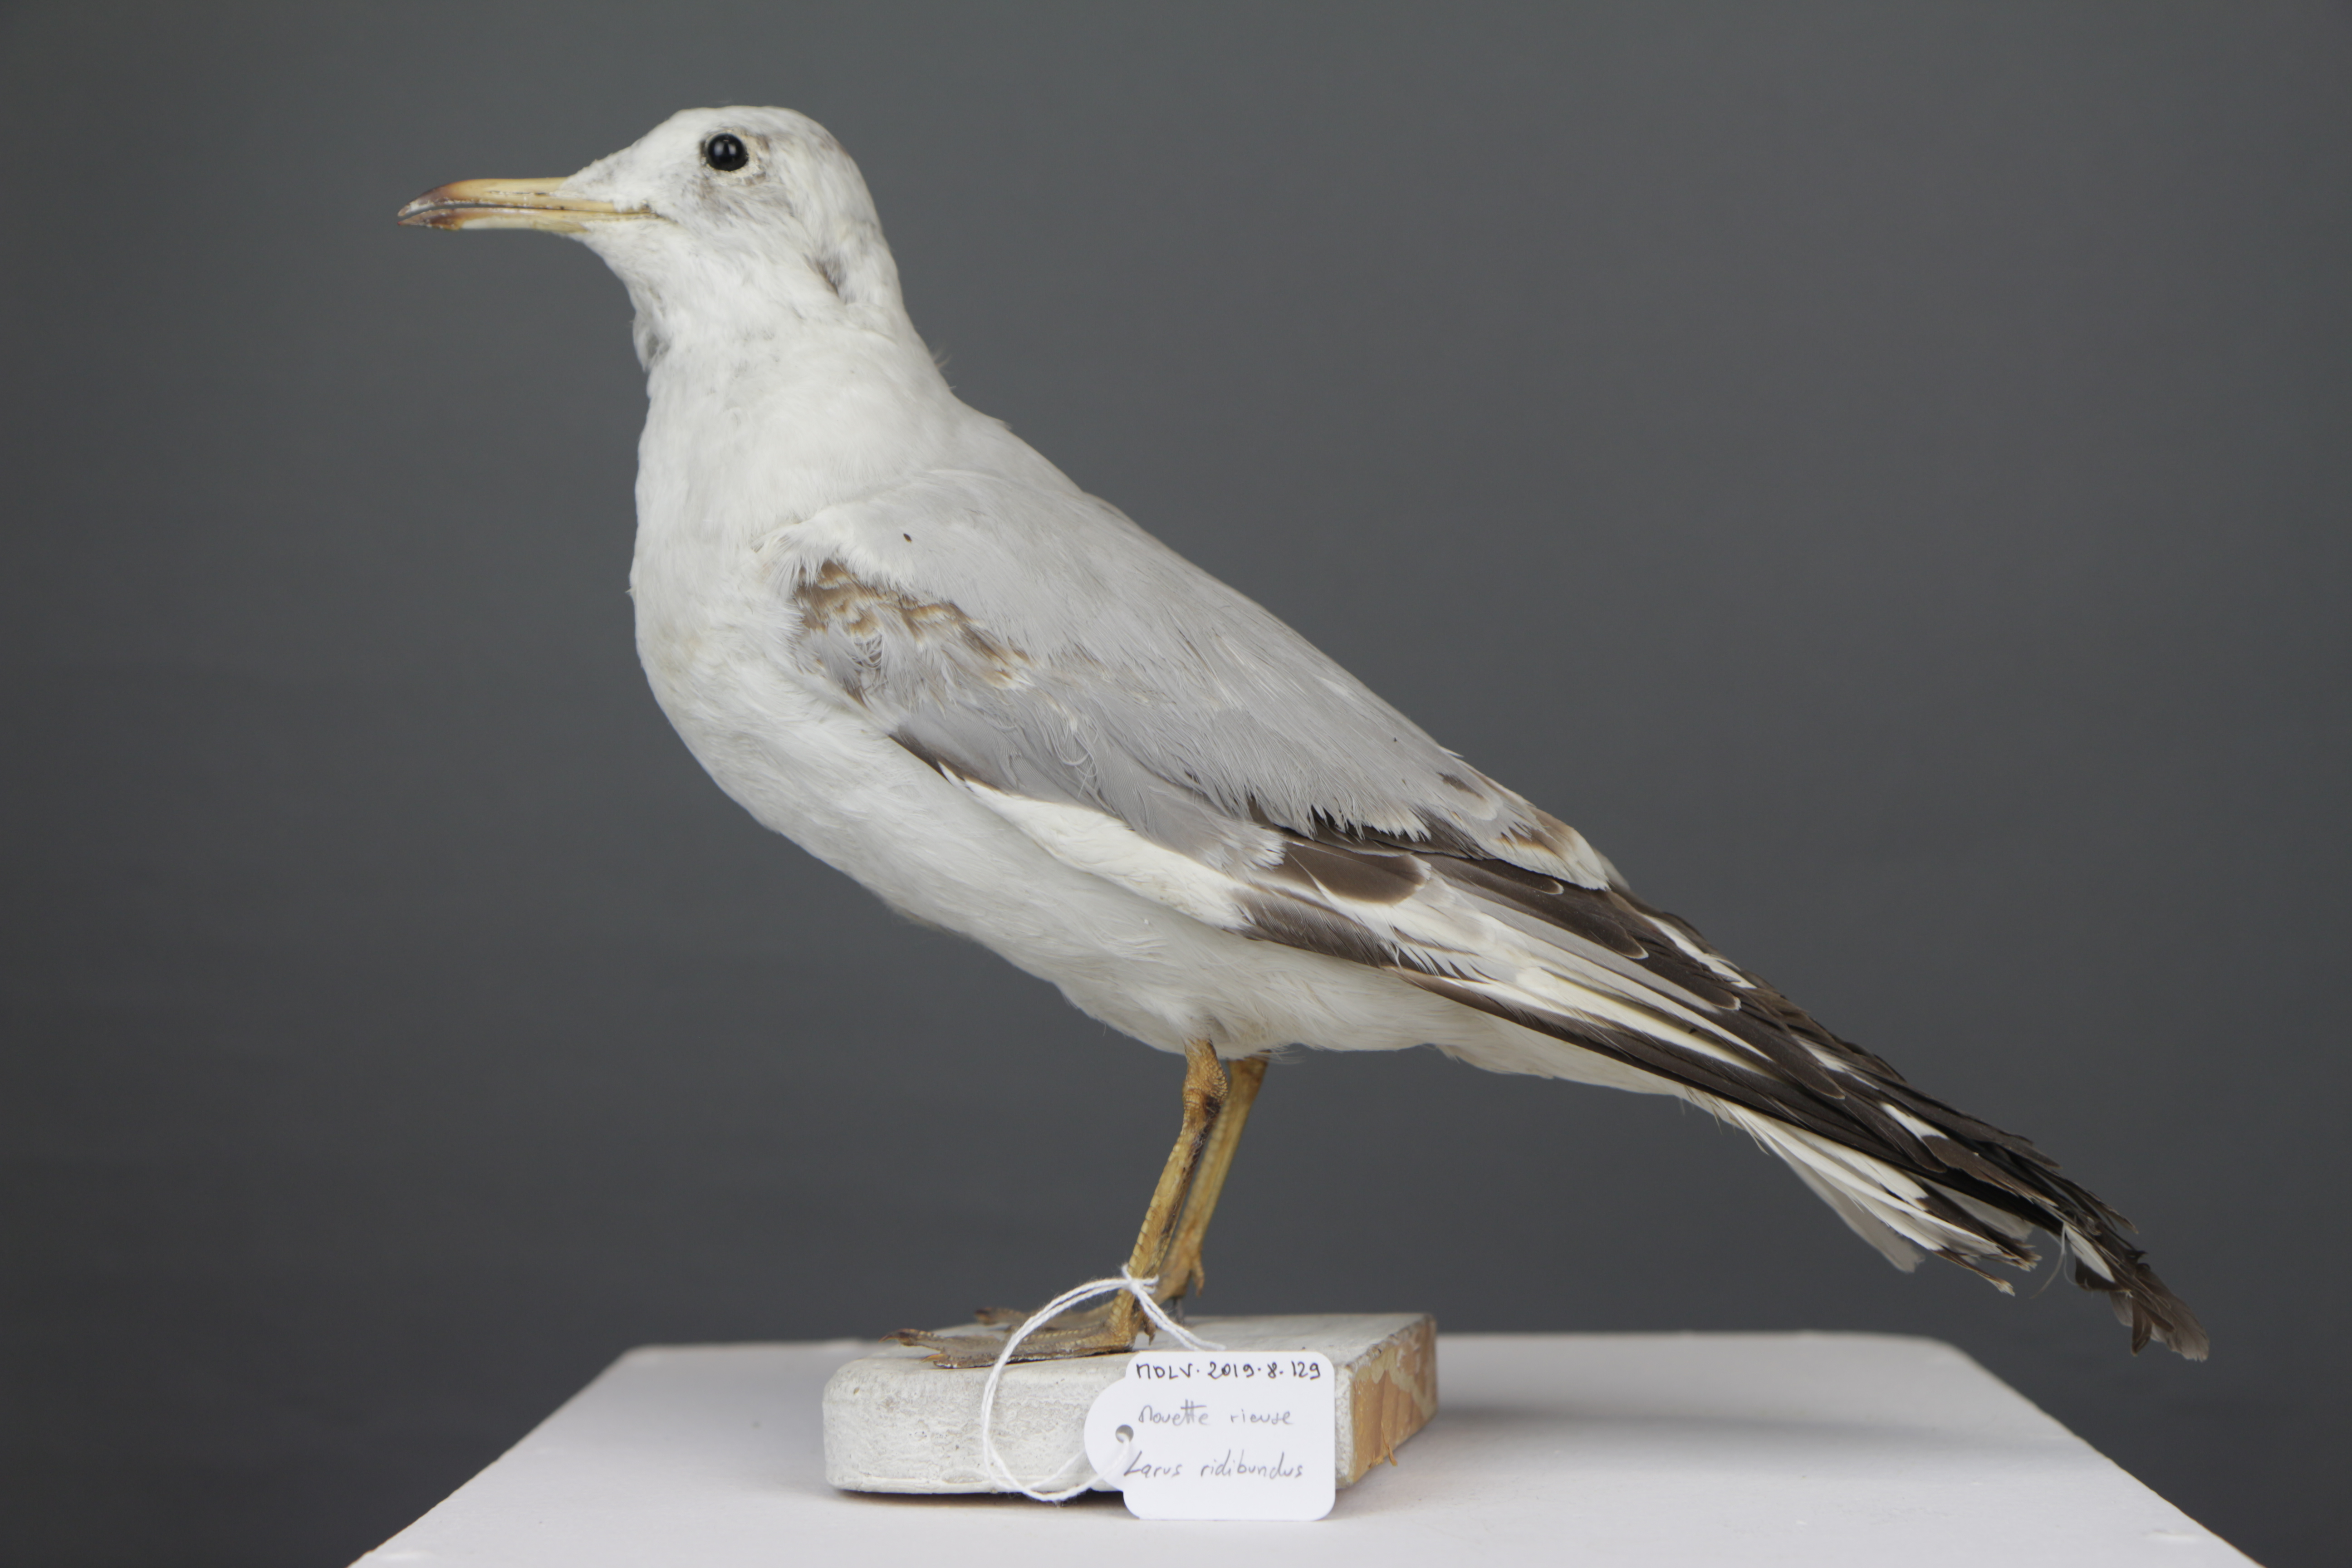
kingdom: Animalia
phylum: Chordata
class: Aves
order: Charadriiformes
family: Laridae
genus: Chroicocephalus
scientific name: Chroicocephalus ridibundus
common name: Black-headed gull
